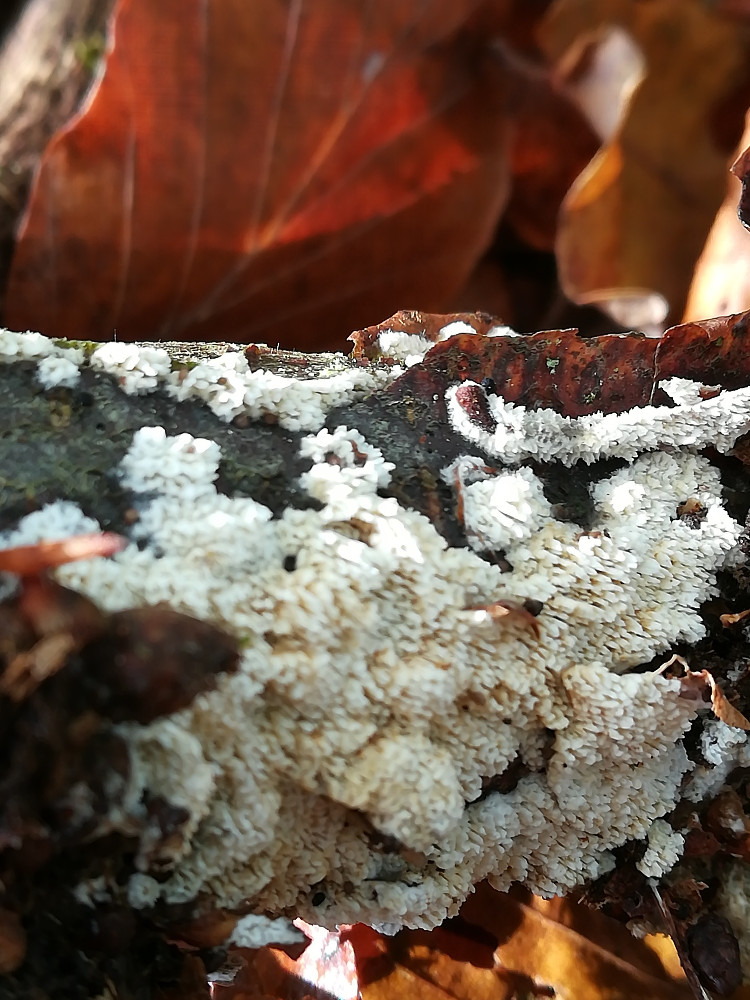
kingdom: Fungi
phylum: Basidiomycota
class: Agaricomycetes
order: Hymenochaetales
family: Schizoporaceae
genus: Schizopora
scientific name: Schizopora paradoxa
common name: hvid tandsvamp
